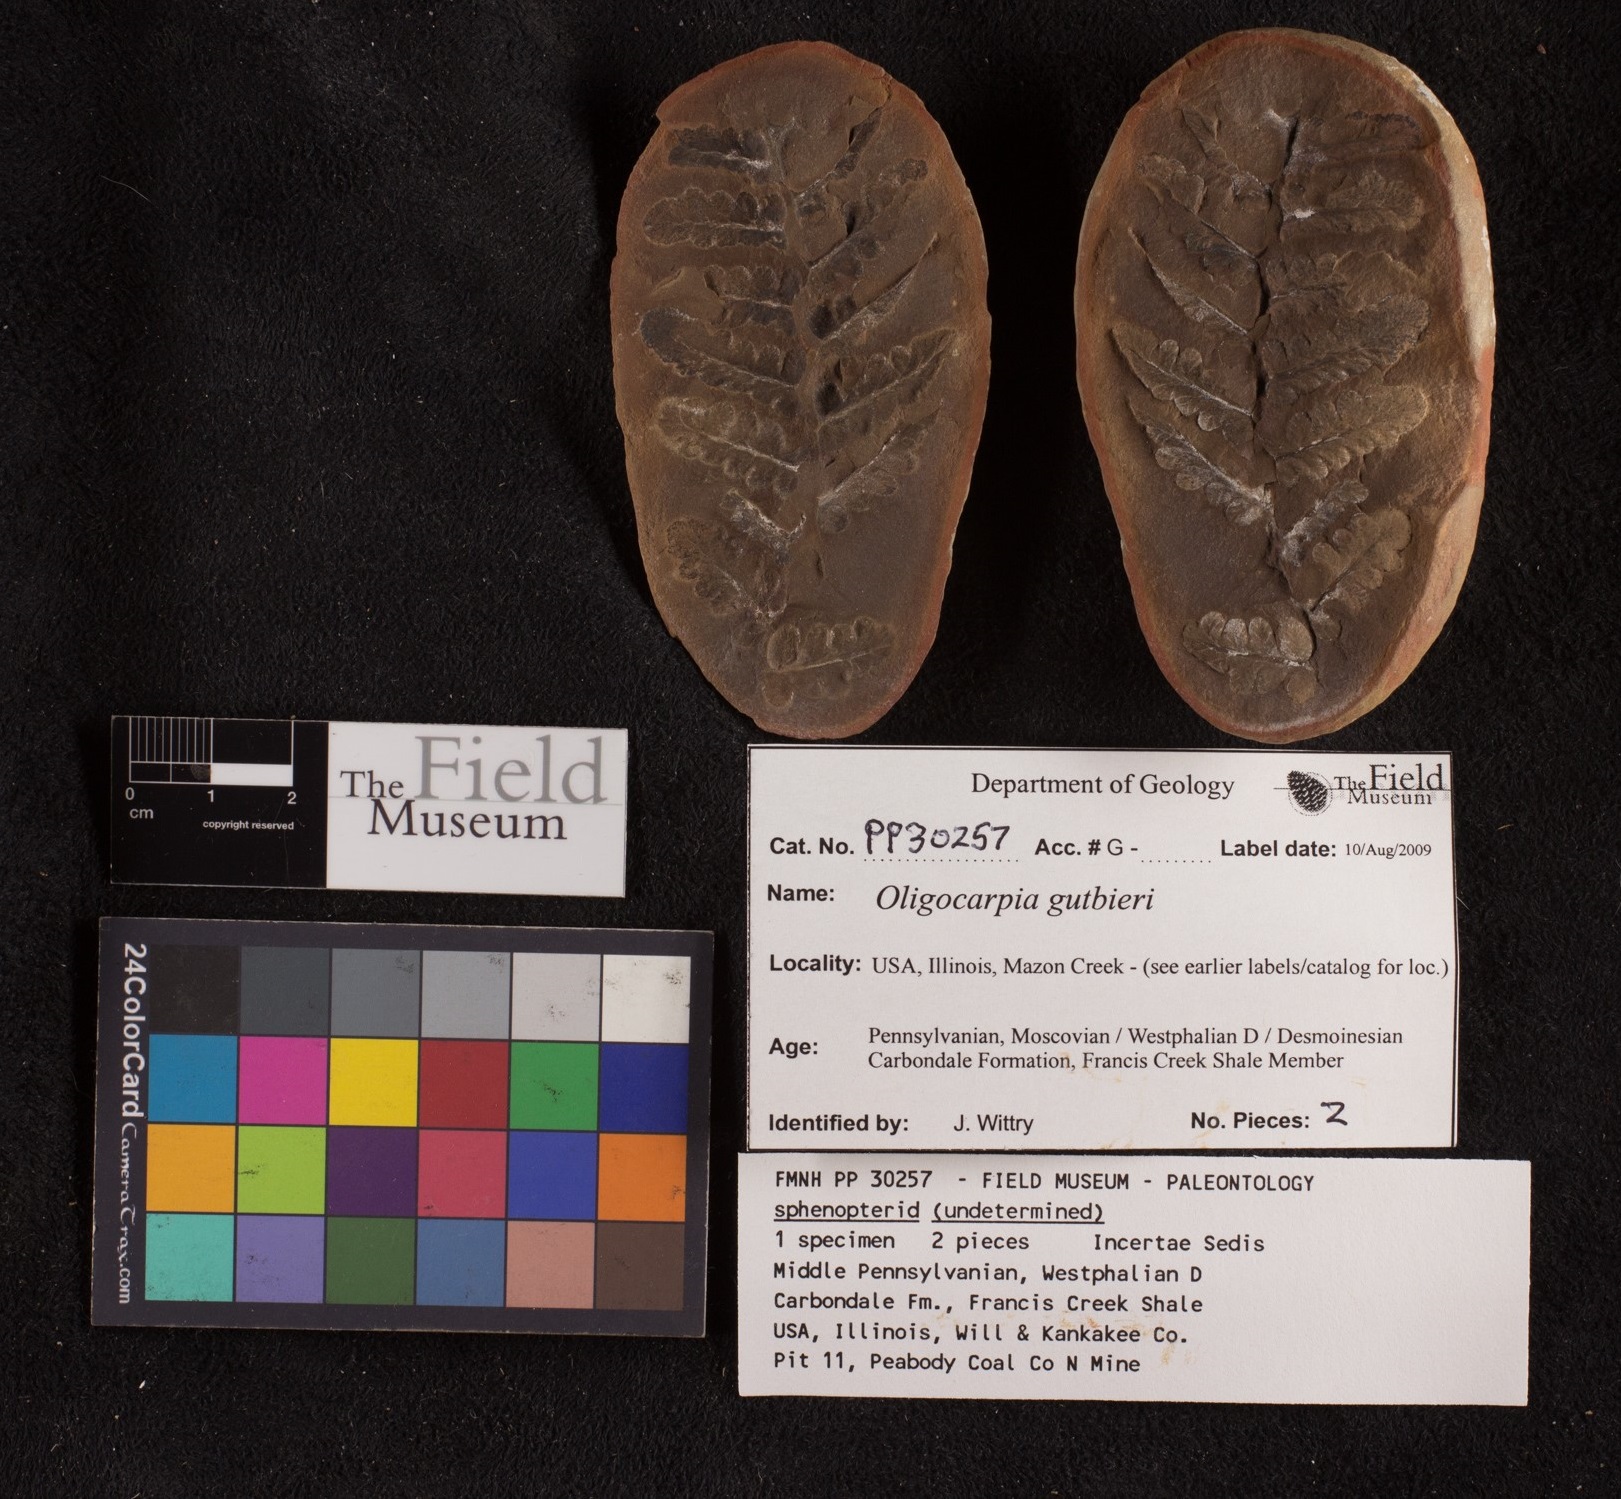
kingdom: Plantae
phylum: Tracheophyta
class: Polypodiopsida
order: Gleicheniales
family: Gleicheniaceae
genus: Oligocarpia
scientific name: Oligocarpia gutbieri
